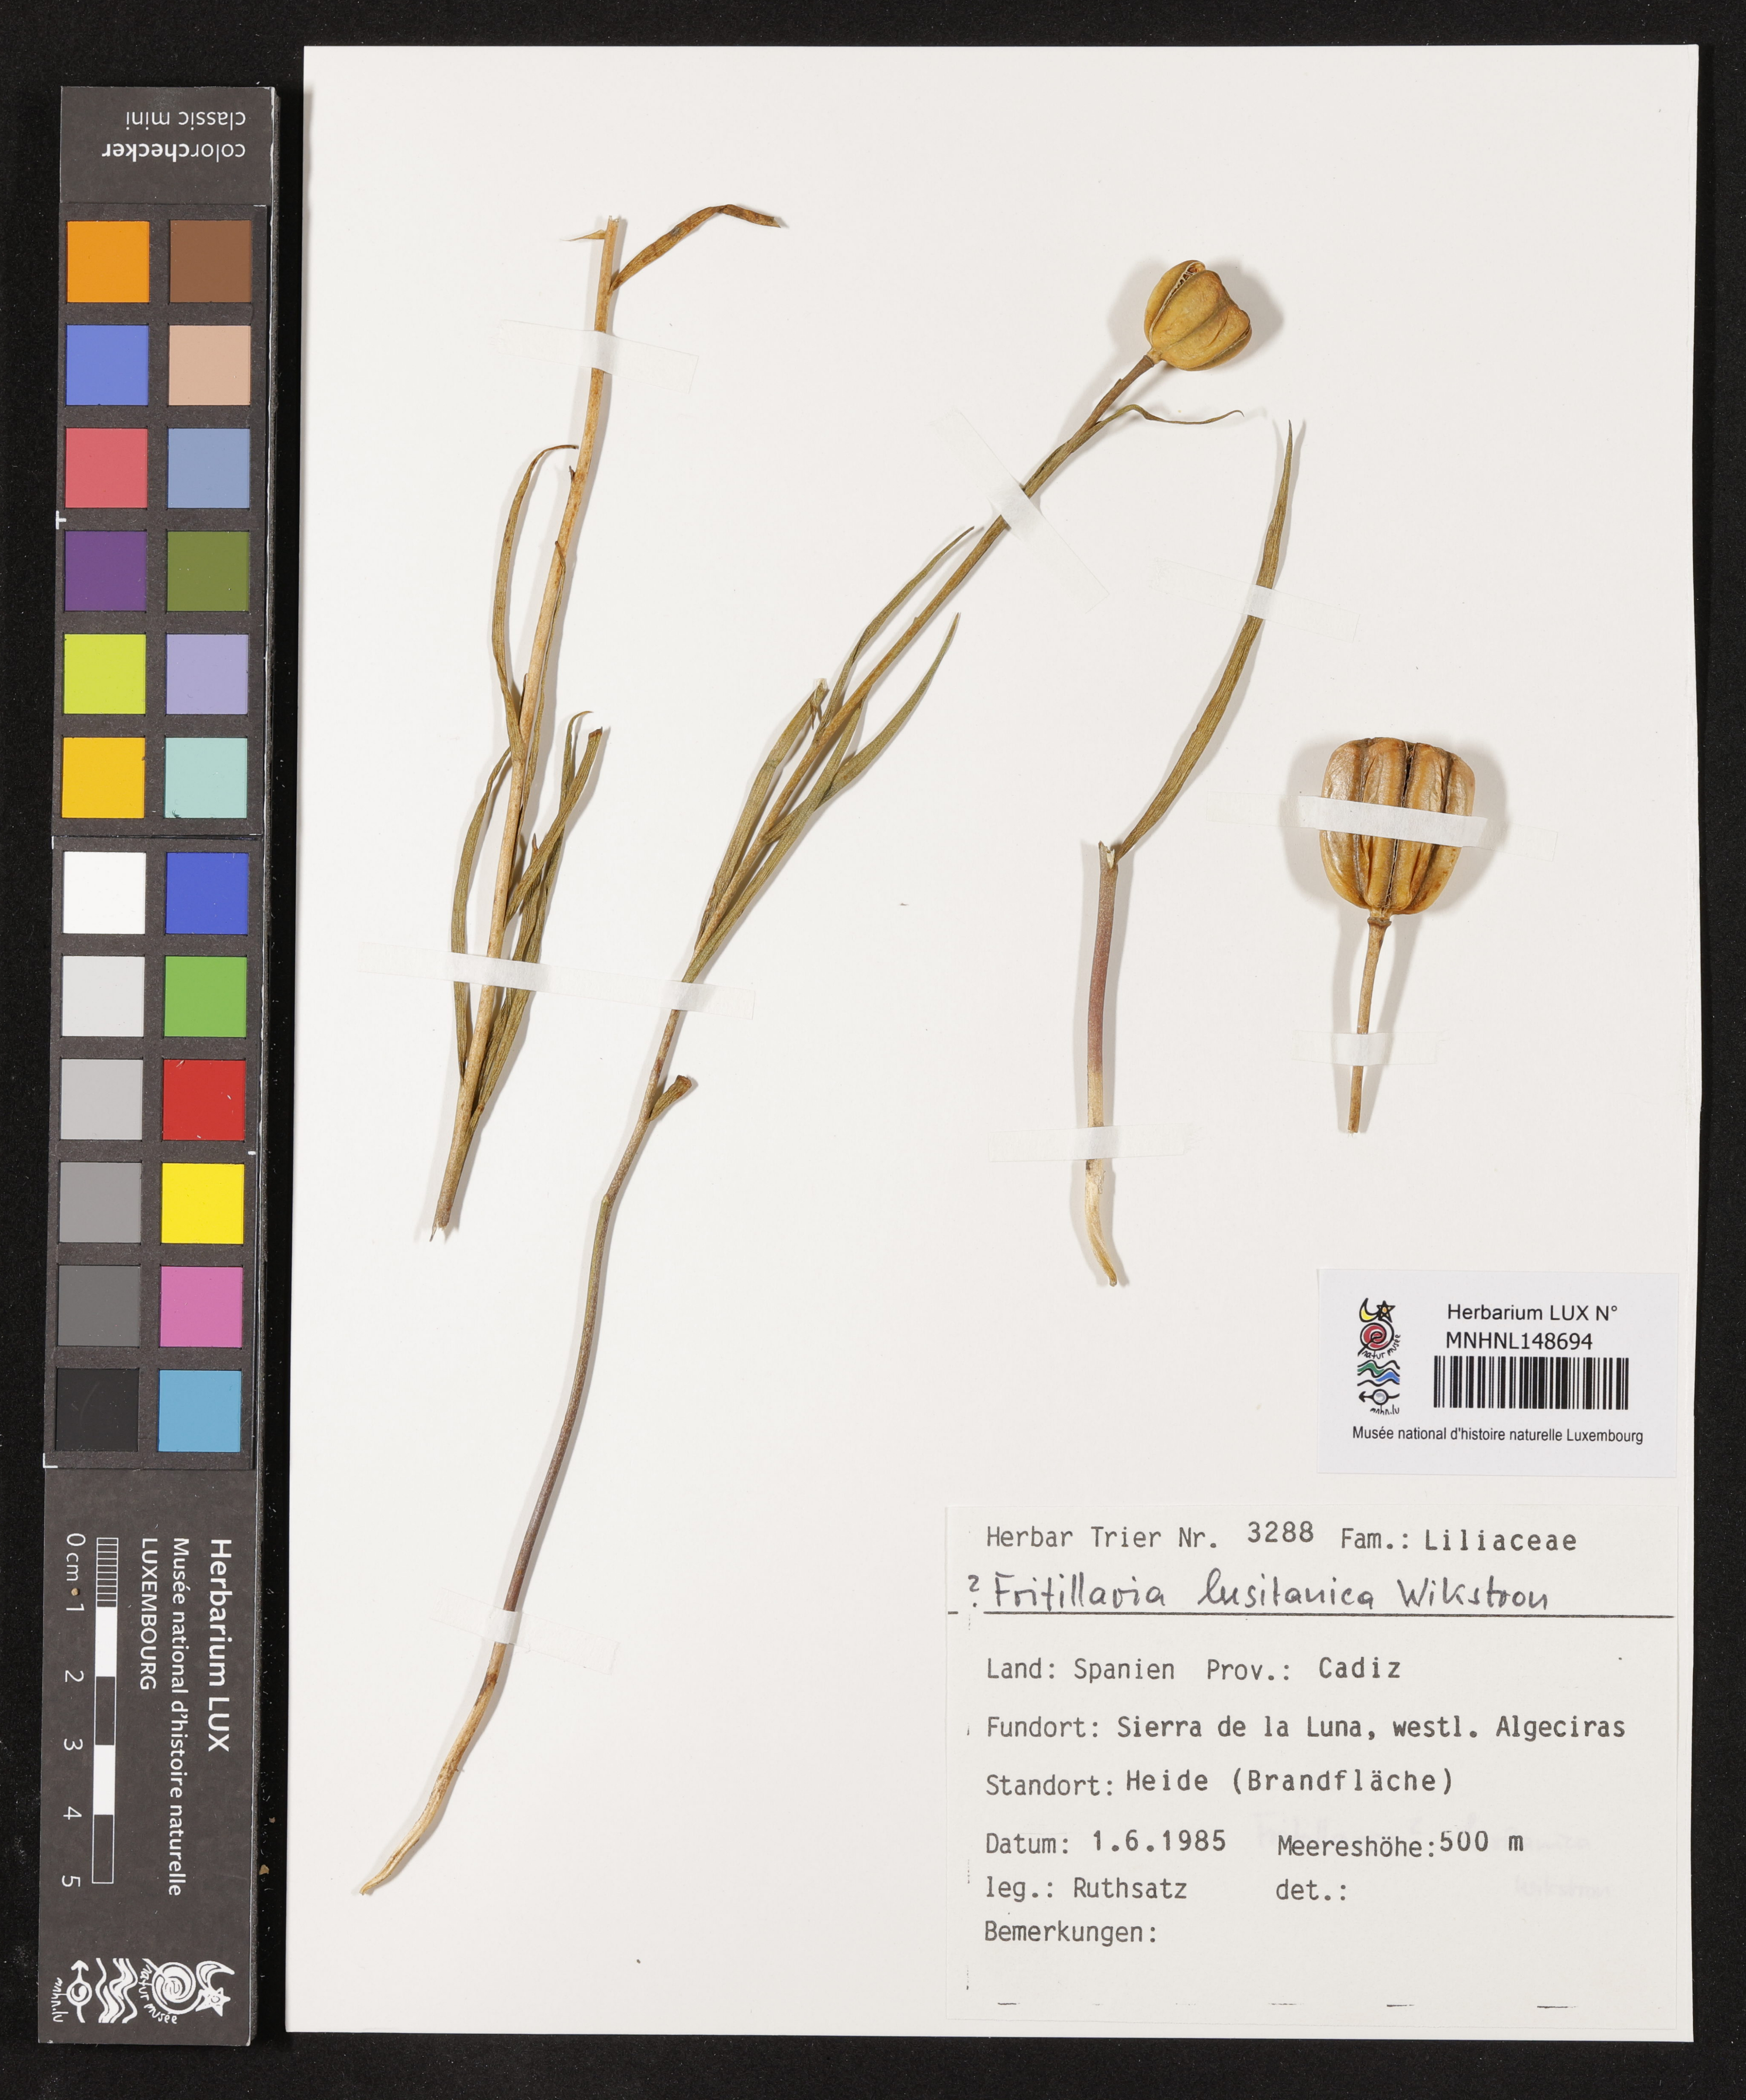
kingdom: Plantae
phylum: Tracheophyta
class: Liliopsida
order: Liliales
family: Liliaceae
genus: Fritillaria
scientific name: Fritillaria lusitanica
